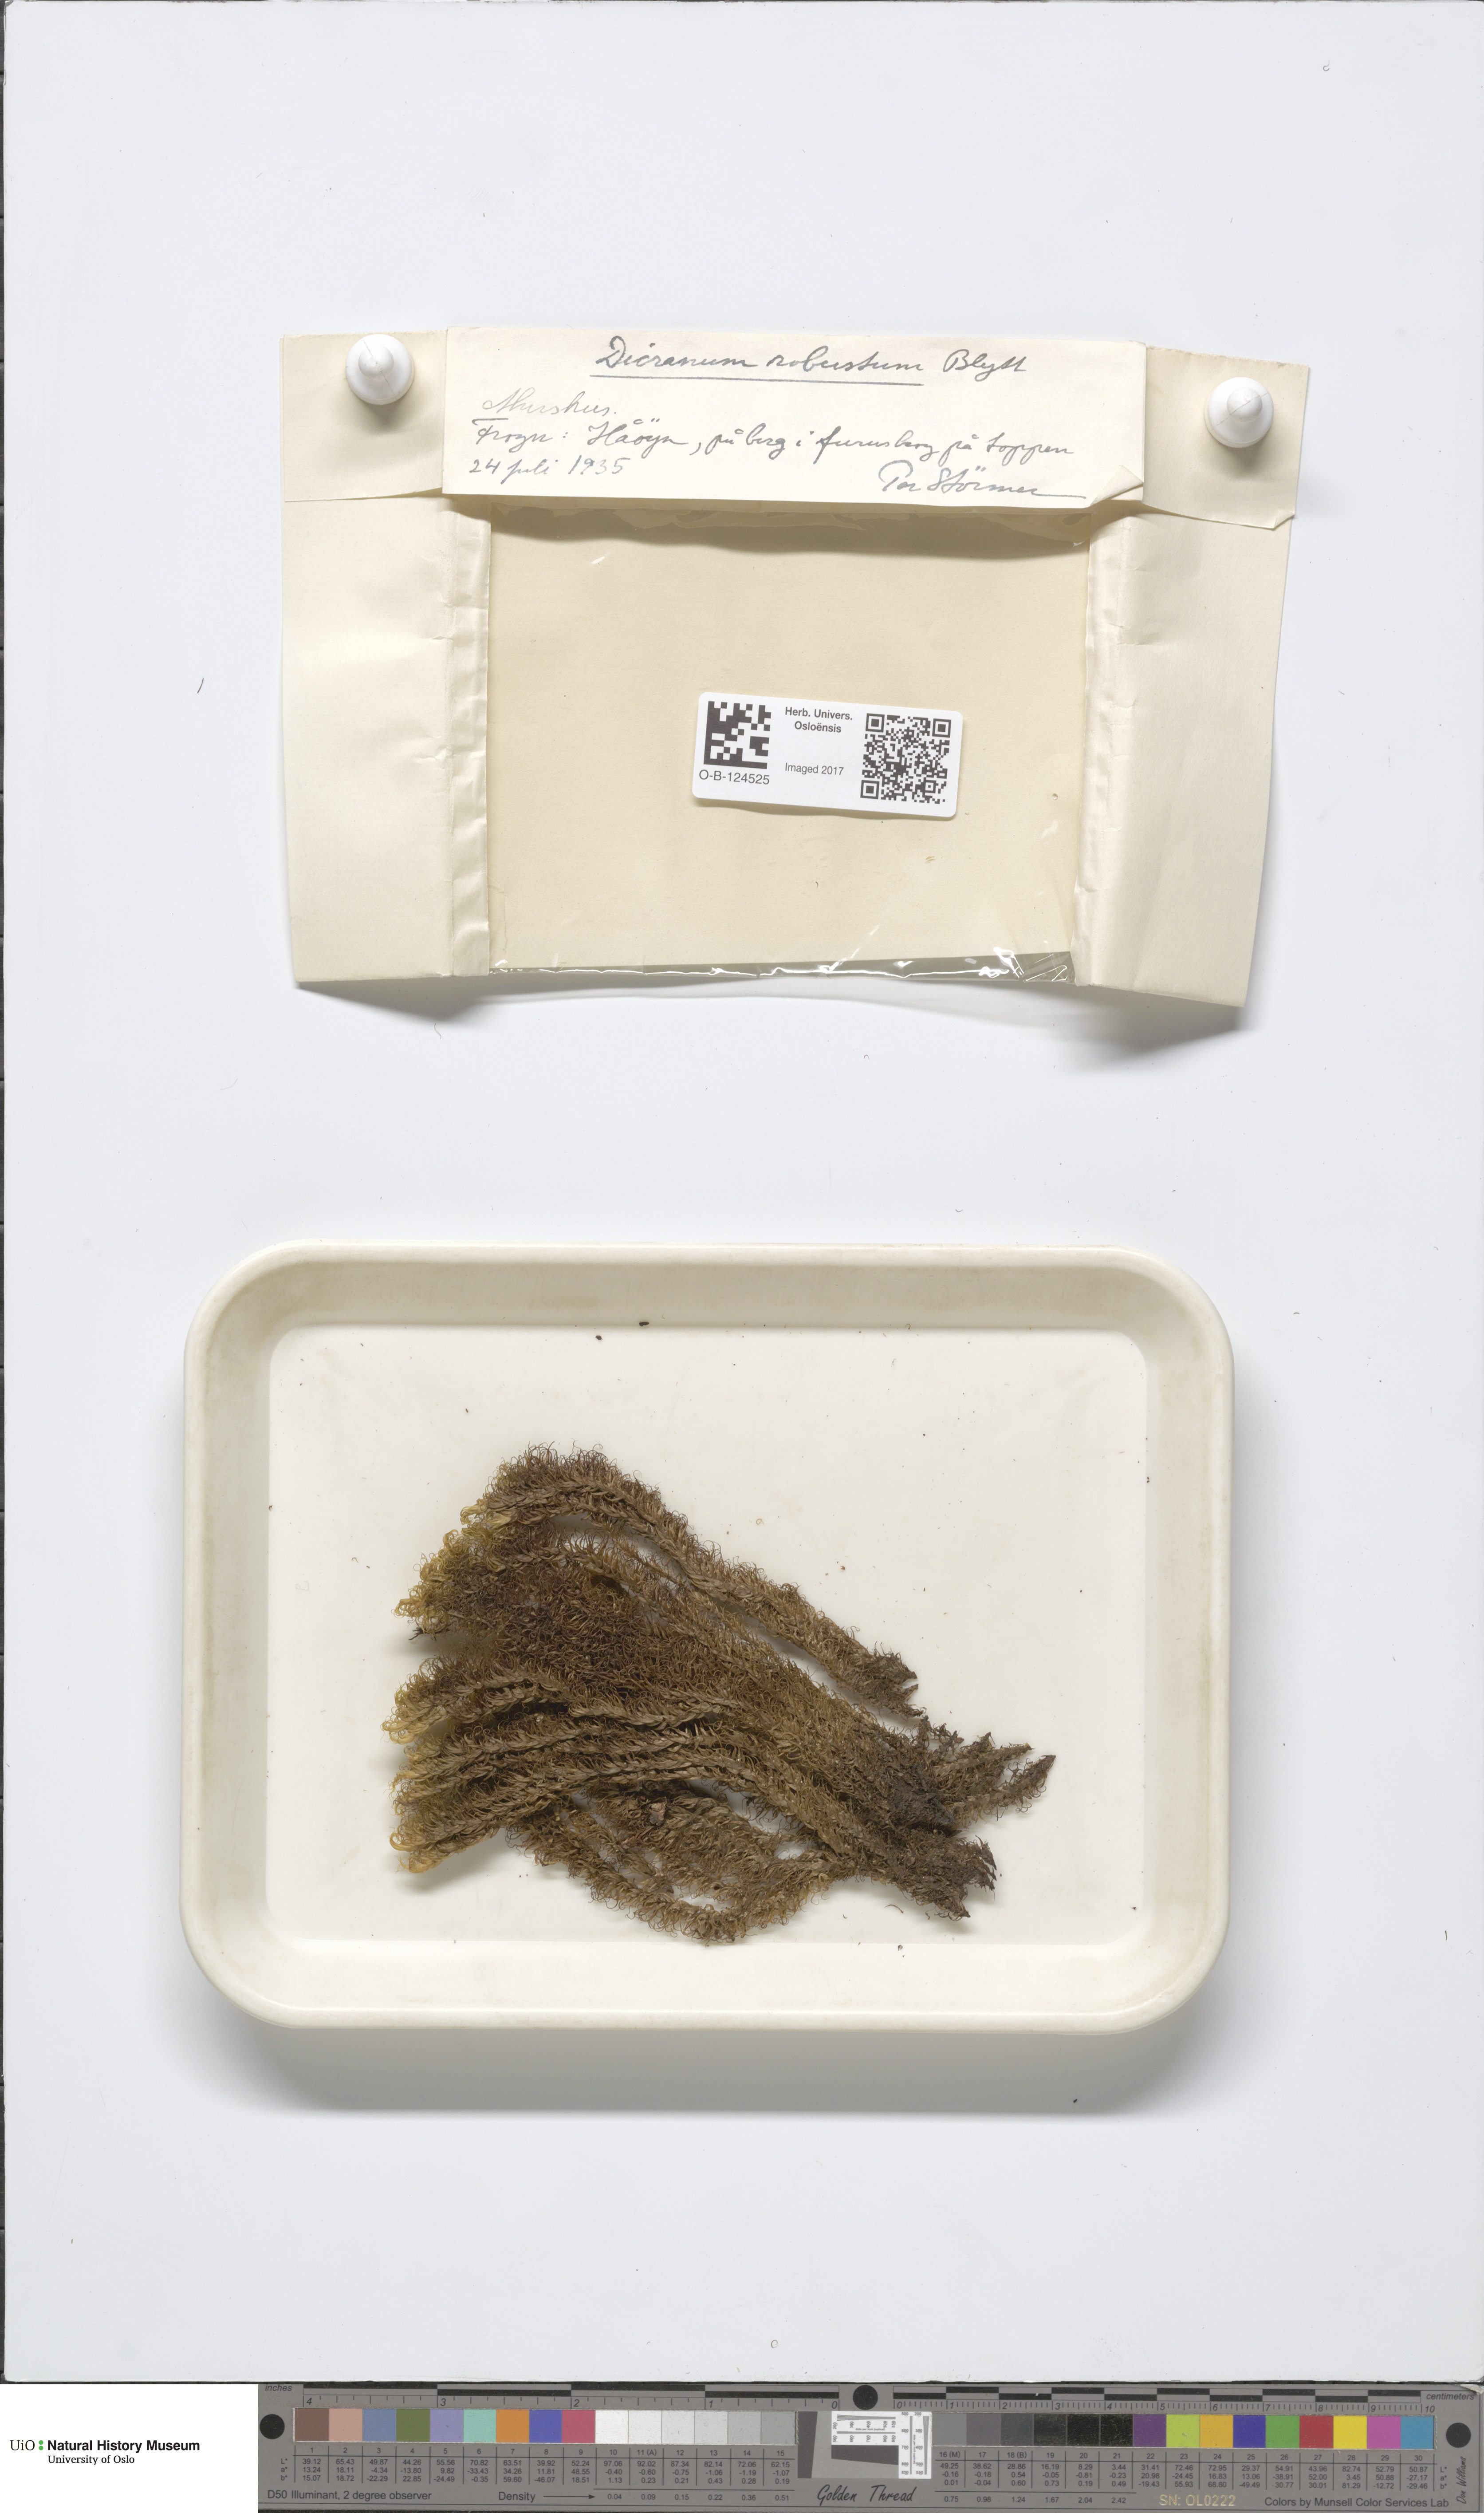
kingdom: Plantae
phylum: Bryophyta
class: Bryopsida
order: Dicranales
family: Dicranaceae
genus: Dicranum
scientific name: Dicranum drummondii
